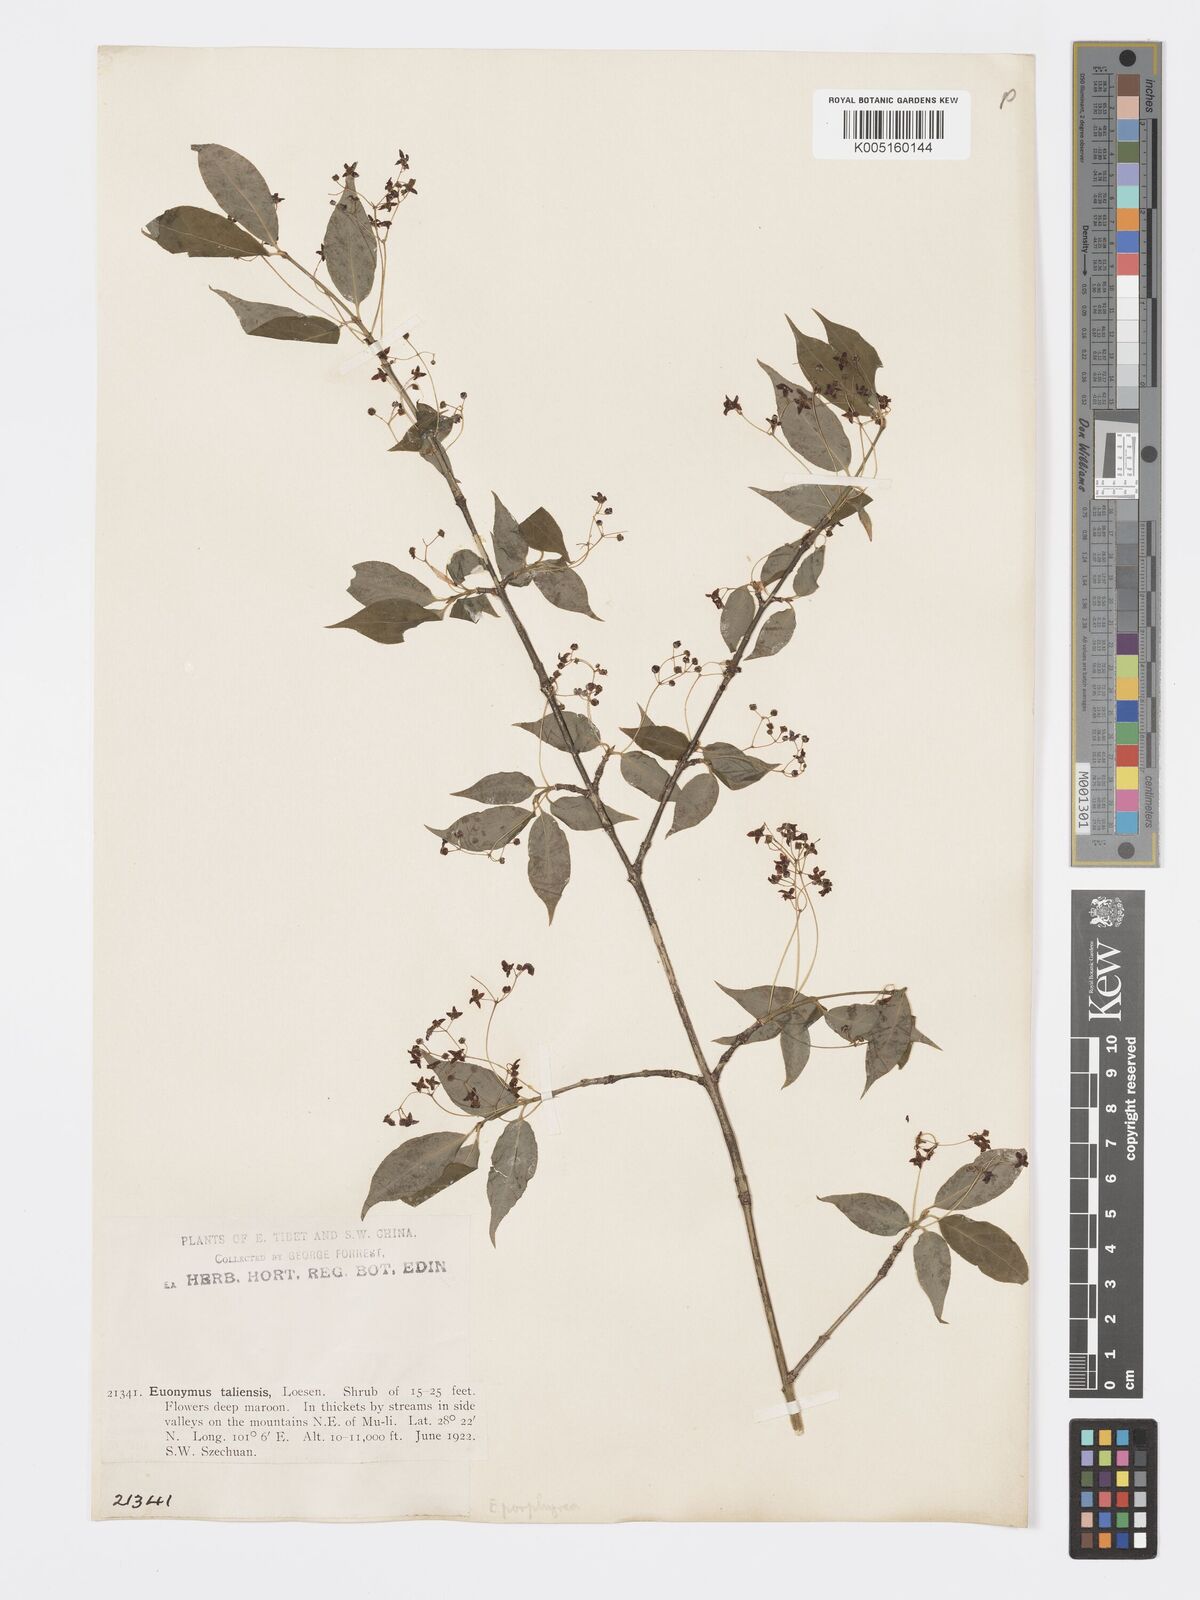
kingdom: Plantae
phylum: Tracheophyta
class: Magnoliopsida
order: Celastrales
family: Celastraceae
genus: Euonymus
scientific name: Euonymus frigidus
